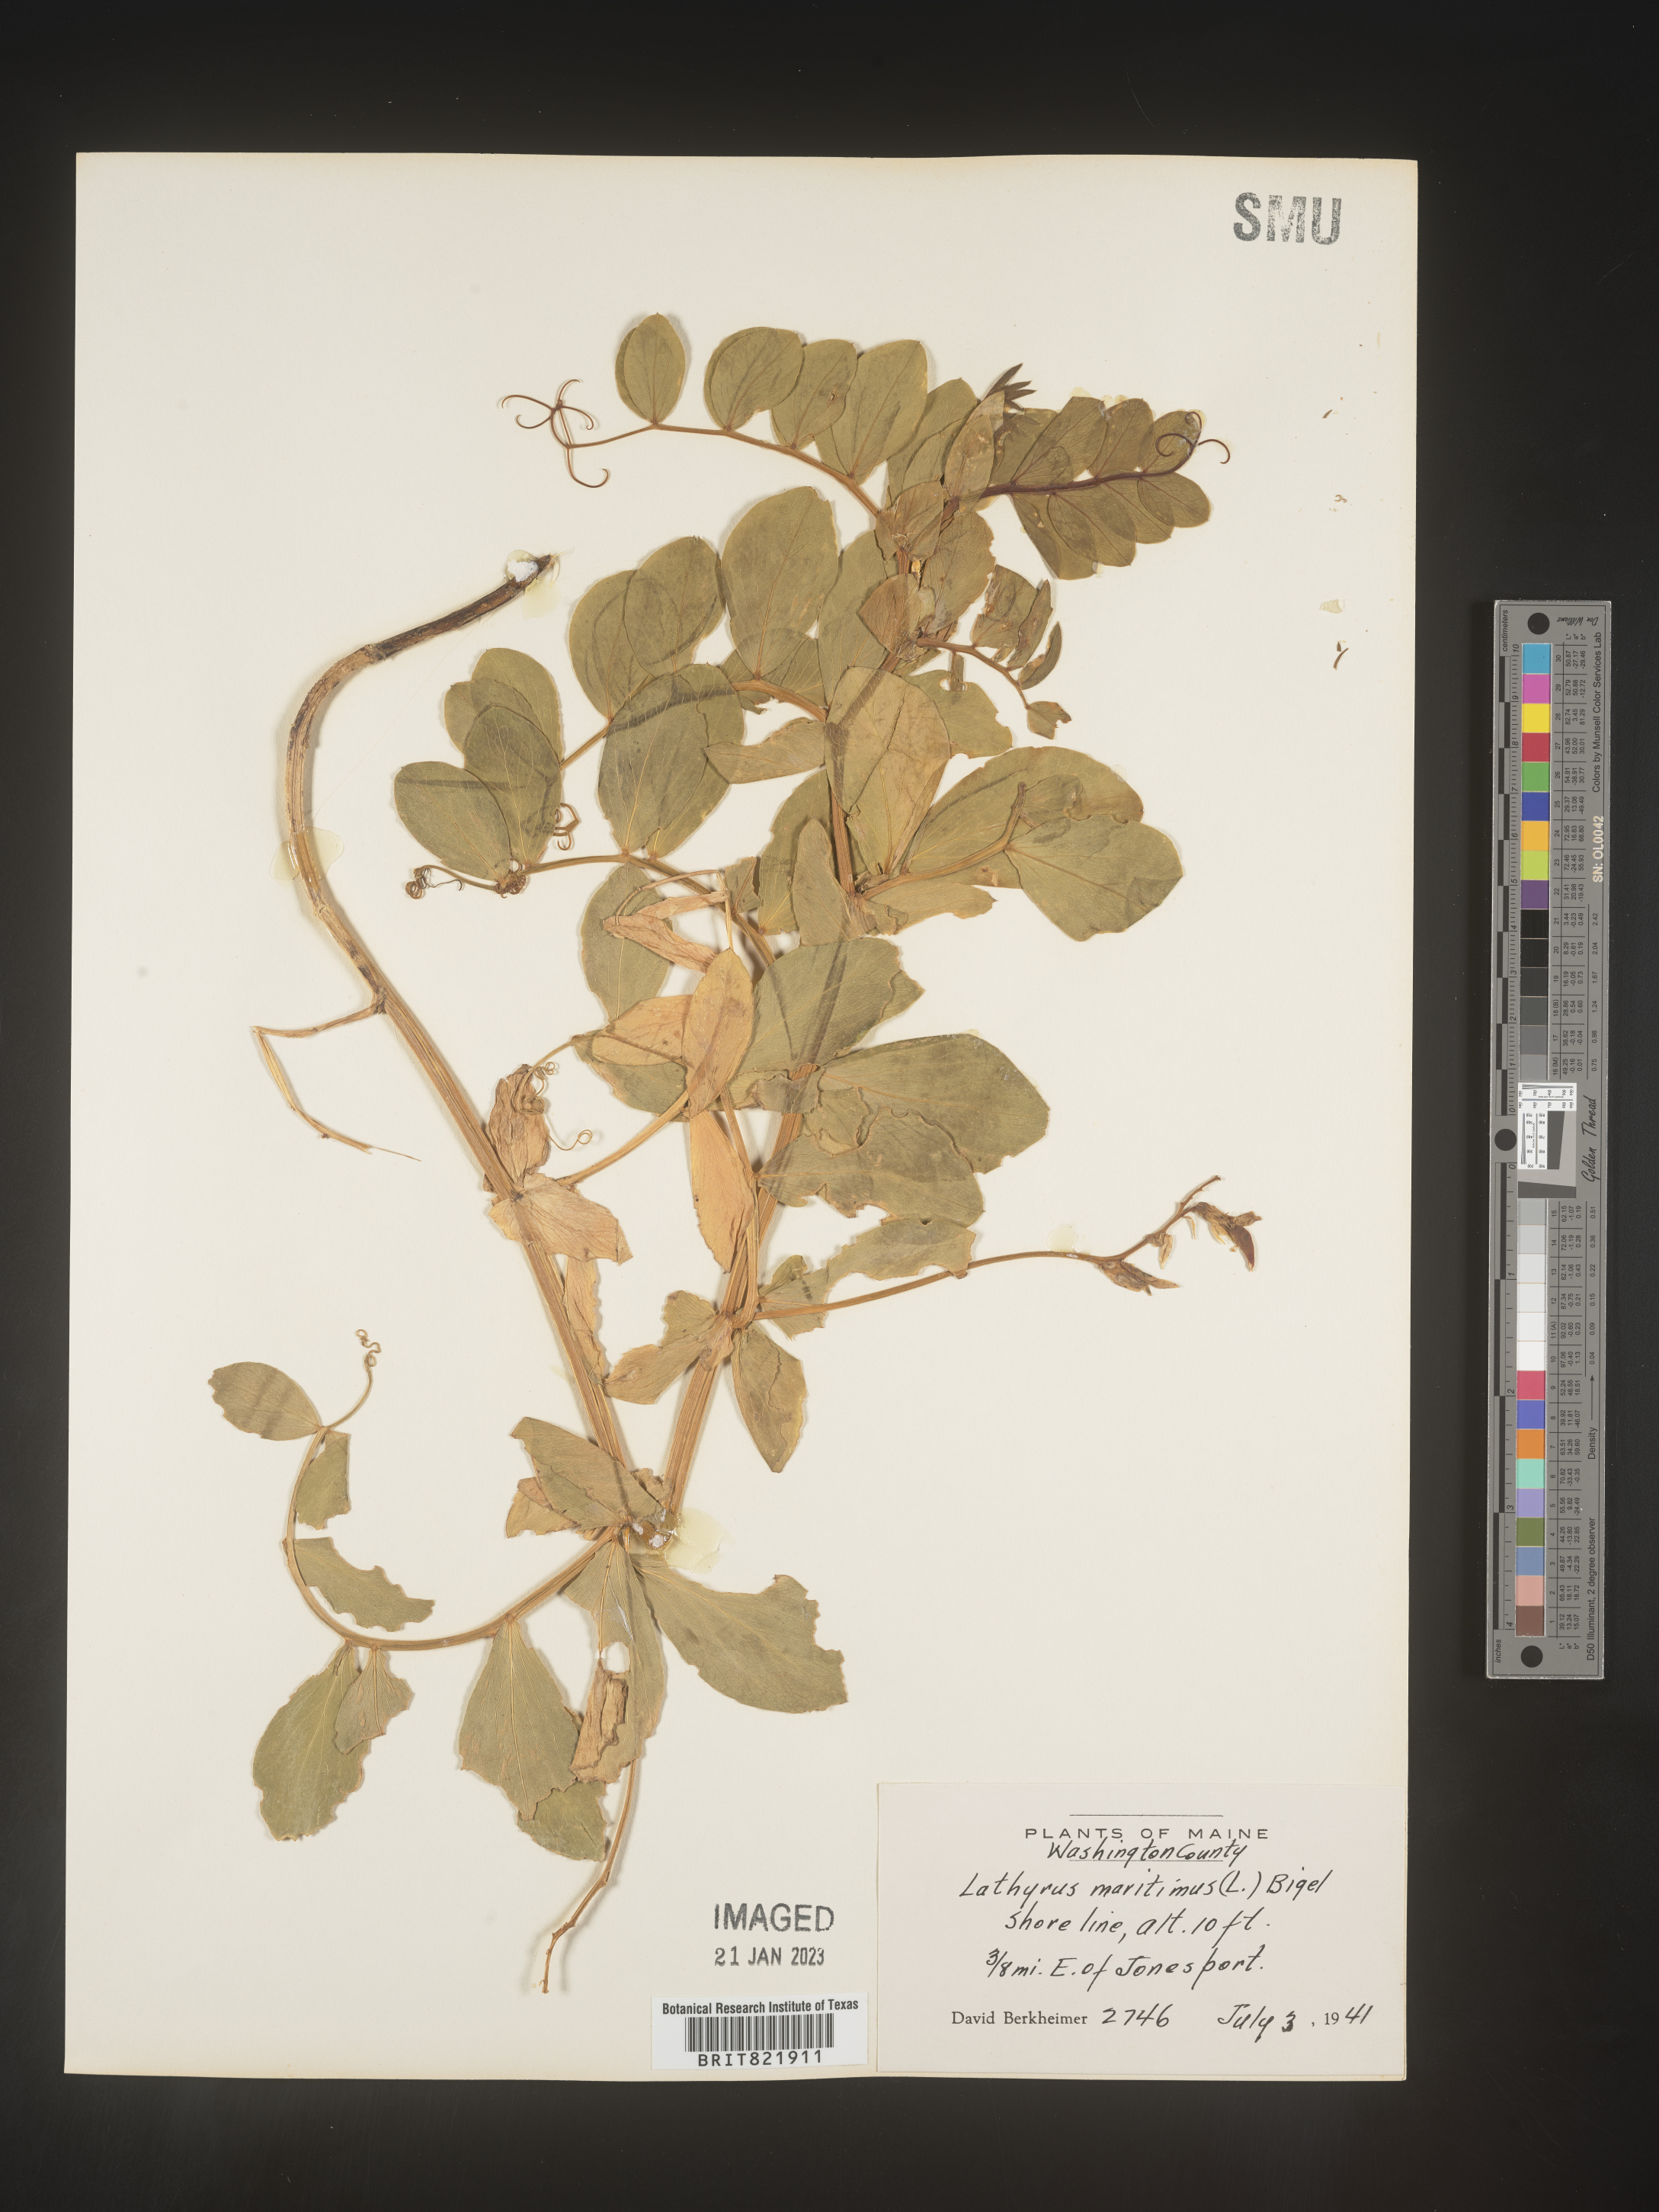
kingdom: Plantae
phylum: Tracheophyta
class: Magnoliopsida
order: Fabales
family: Fabaceae
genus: Lathyrus
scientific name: Lathyrus
